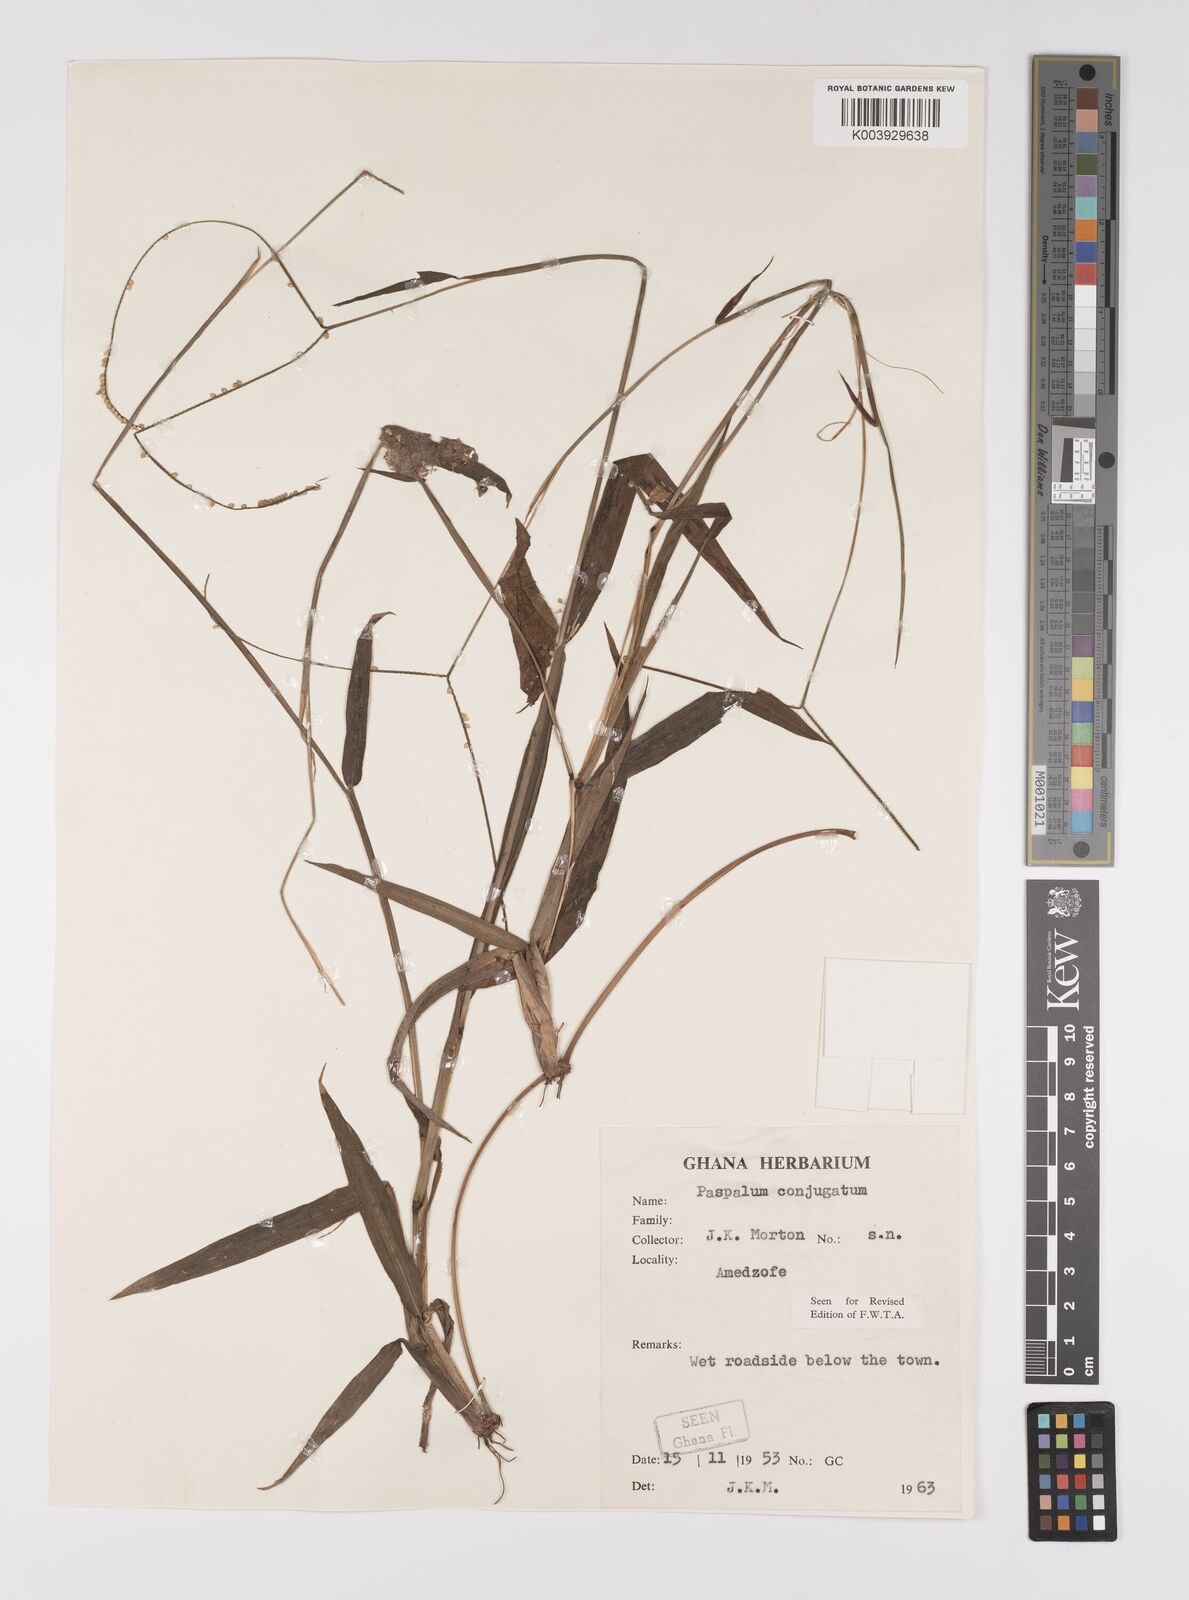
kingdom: Plantae
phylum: Tracheophyta
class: Liliopsida
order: Poales
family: Poaceae
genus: Paspalum
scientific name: Paspalum conjugatum
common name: Hilograss
